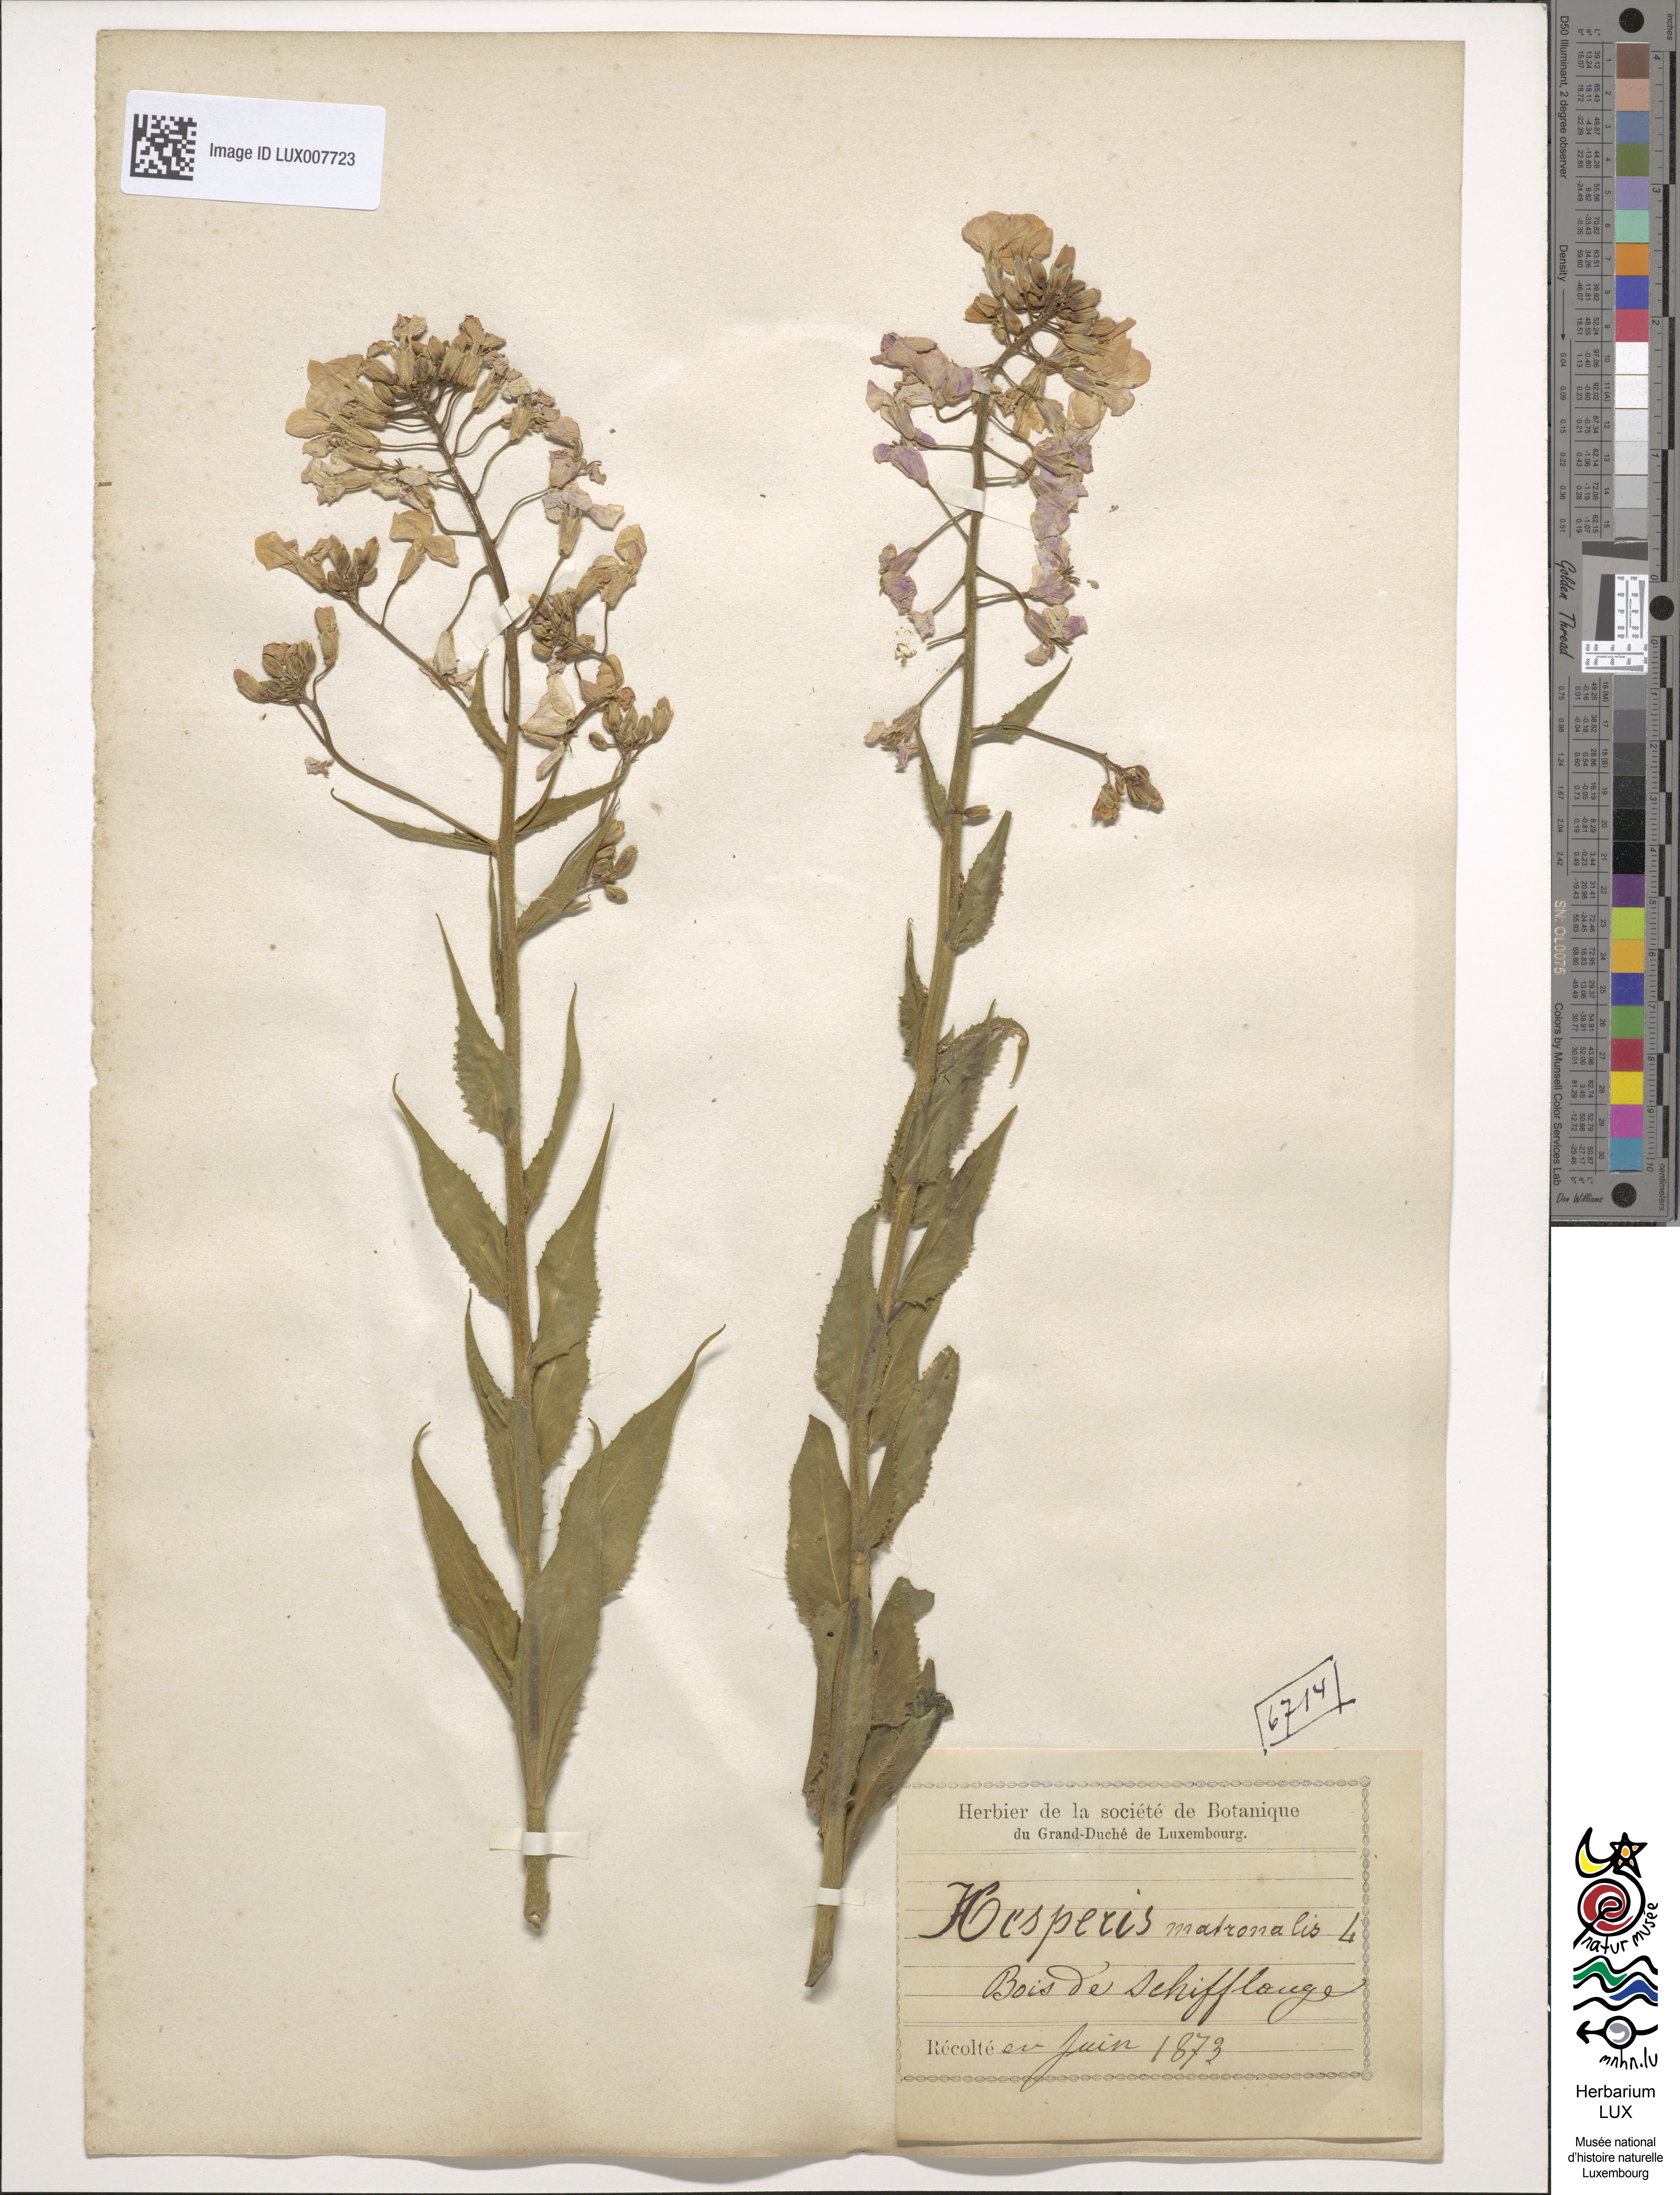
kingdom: Plantae
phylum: Tracheophyta
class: Magnoliopsida
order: Brassicales
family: Brassicaceae
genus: Hesperis
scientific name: Hesperis matronalis
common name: Dame's-violet
